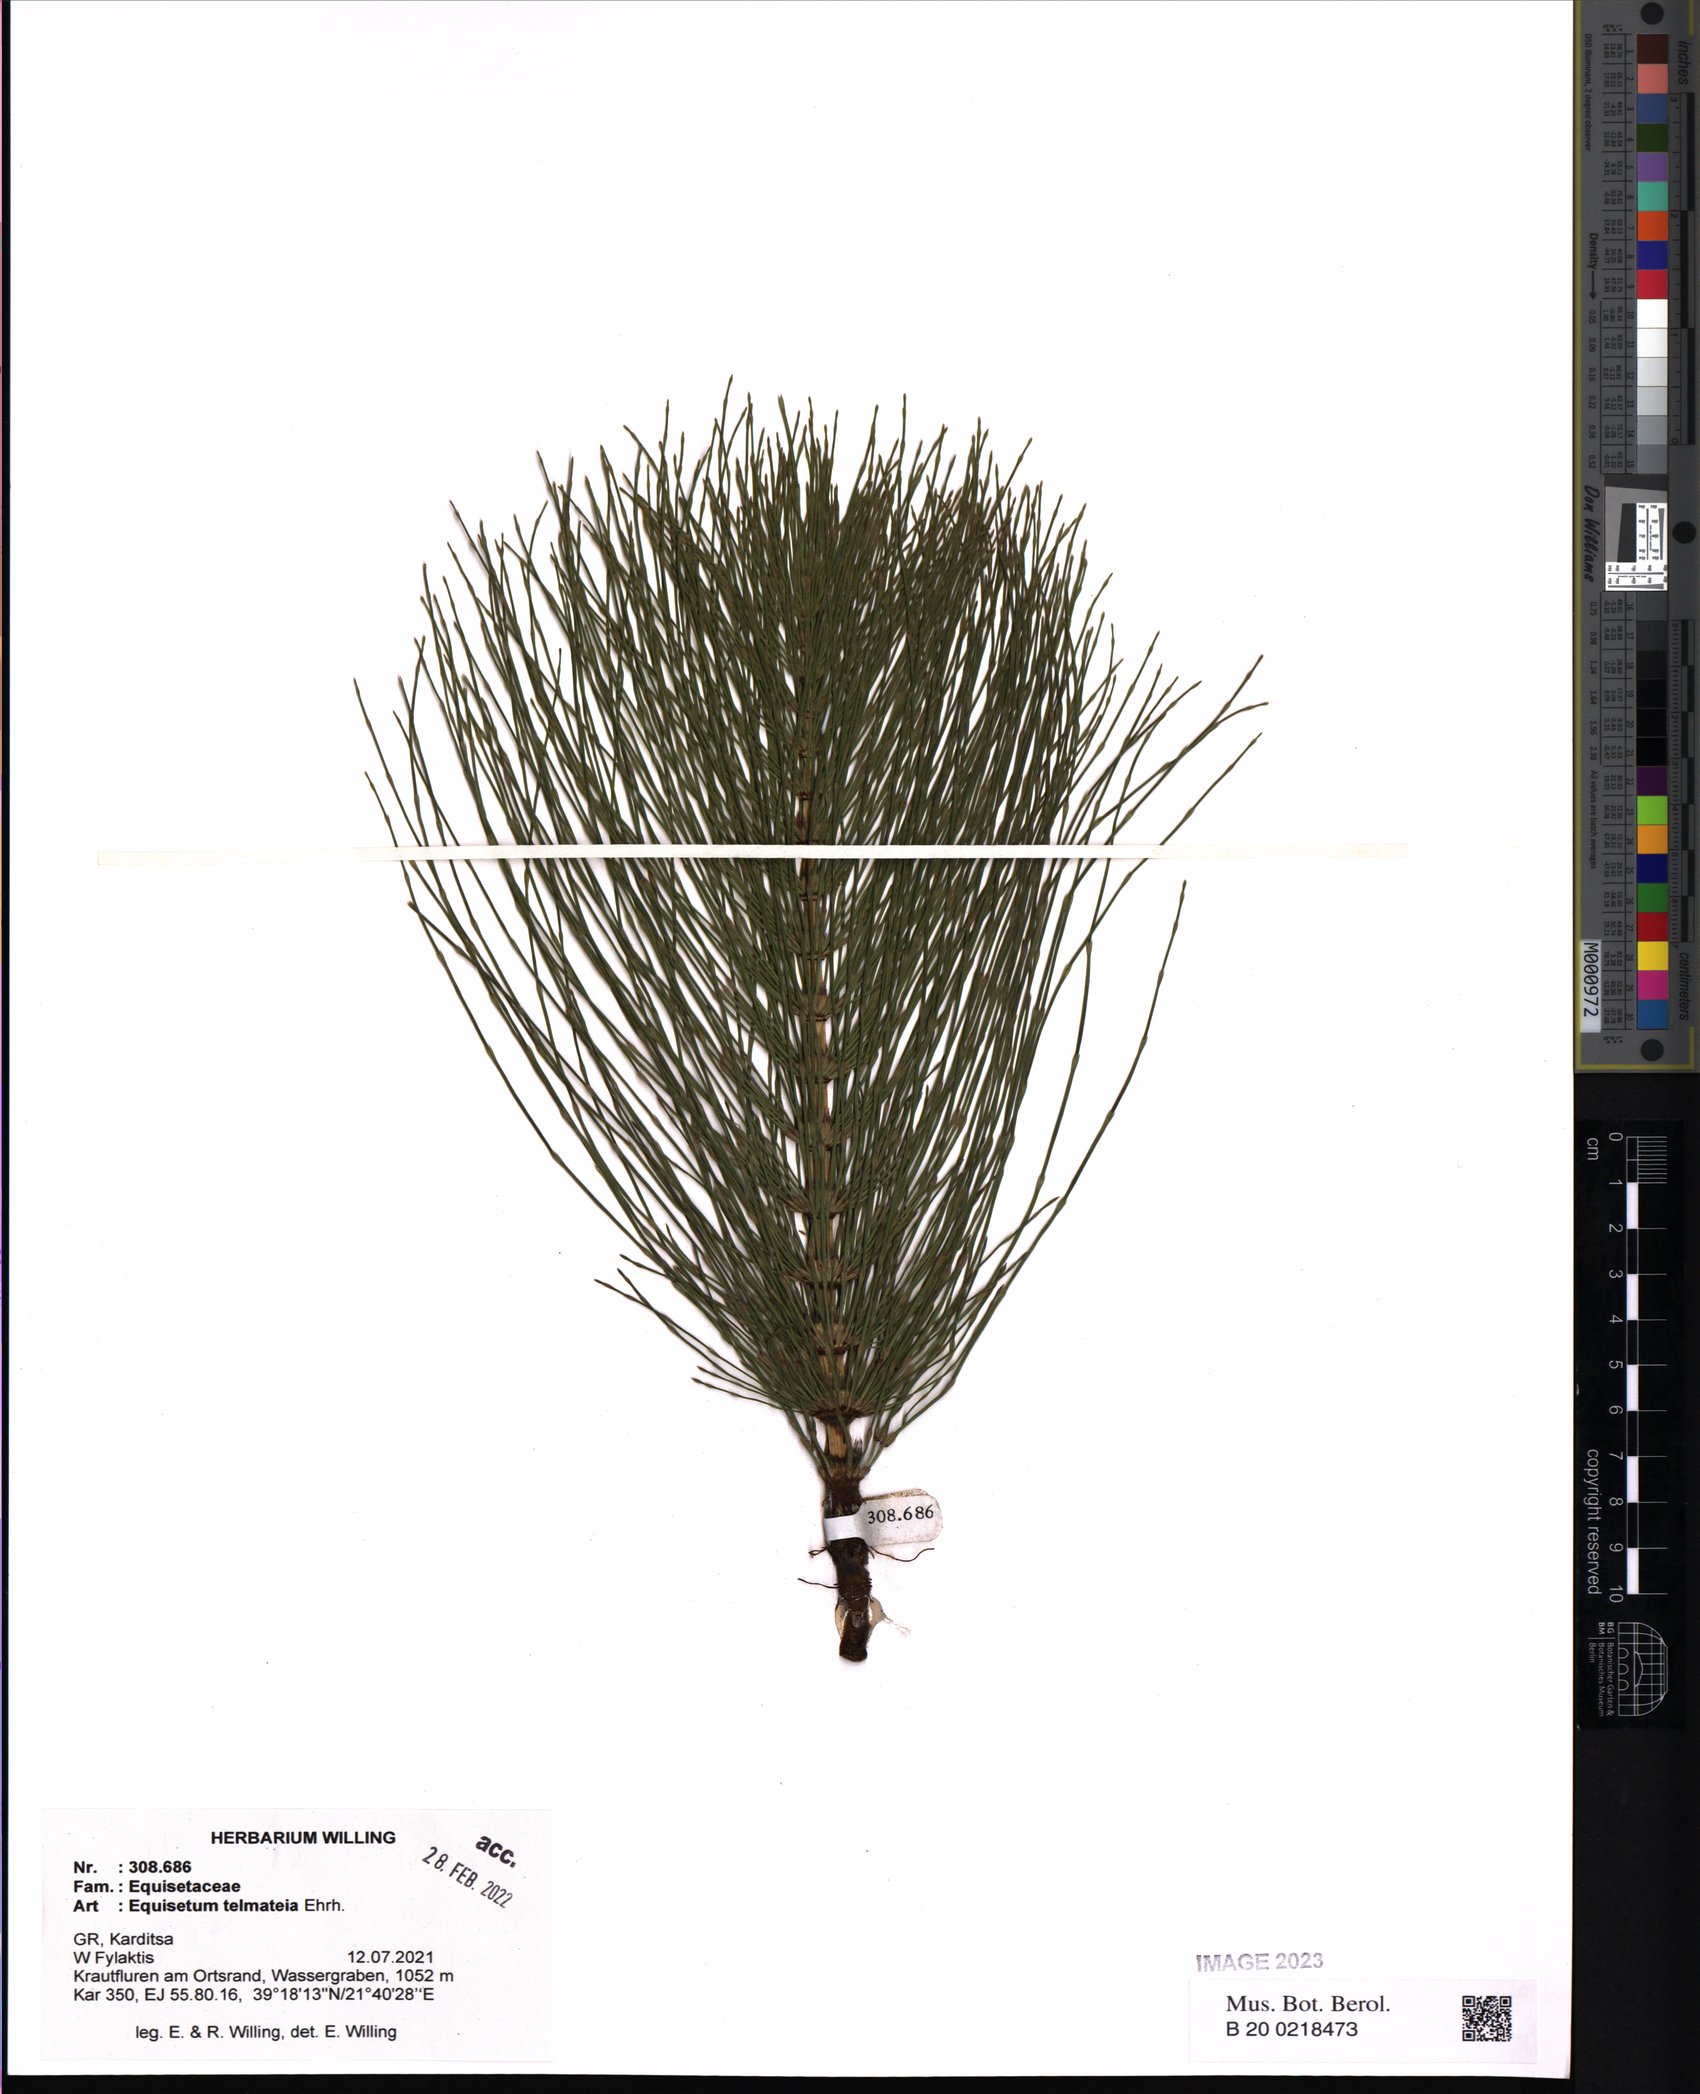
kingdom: Plantae
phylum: Tracheophyta
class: Polypodiopsida
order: Equisetales
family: Equisetaceae
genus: Equisetum
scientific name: Equisetum telmateia
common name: Great horsetail
